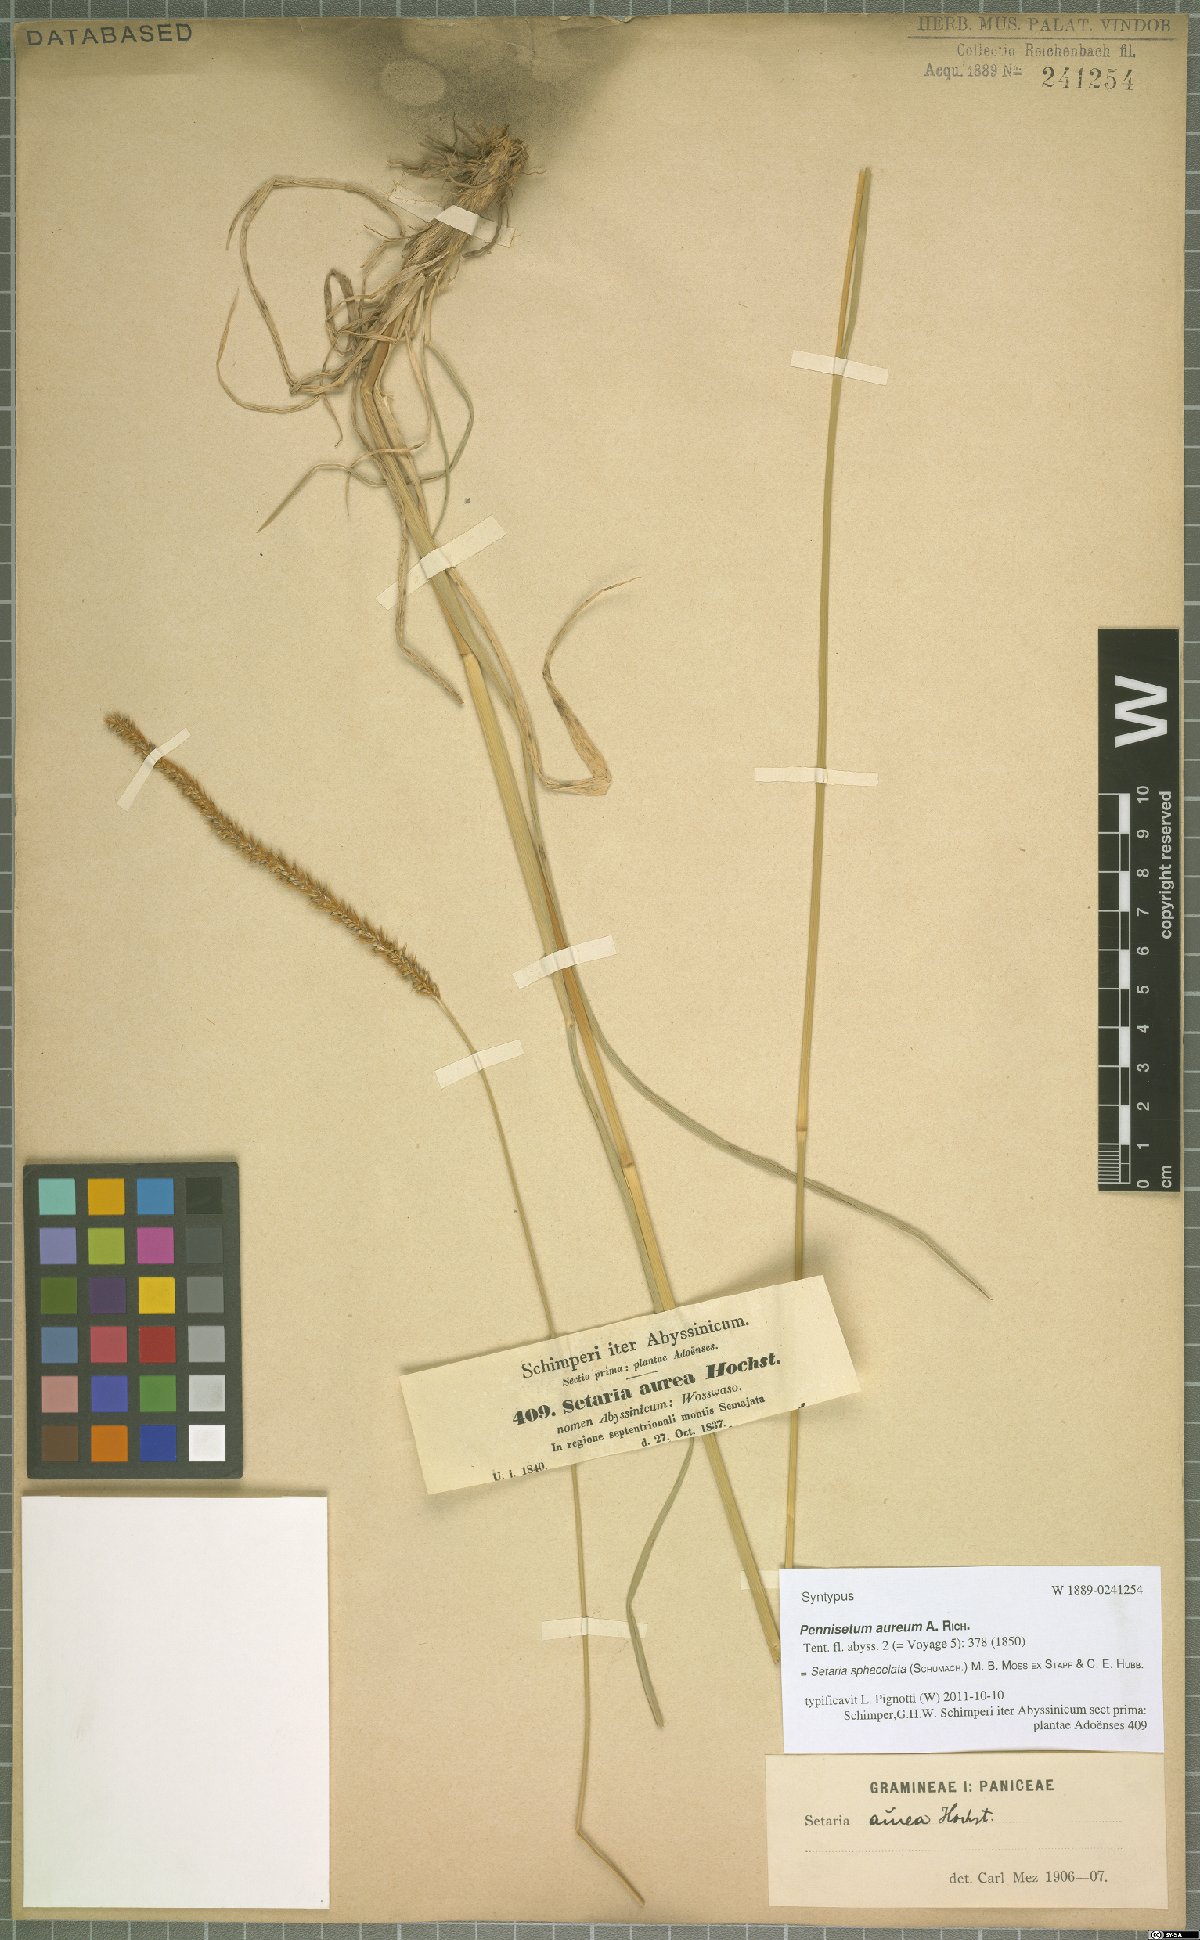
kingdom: Plantae
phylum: Tracheophyta
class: Liliopsida
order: Poales
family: Poaceae
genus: Setaria
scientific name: Setaria sphacelata
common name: African bristlegrass
